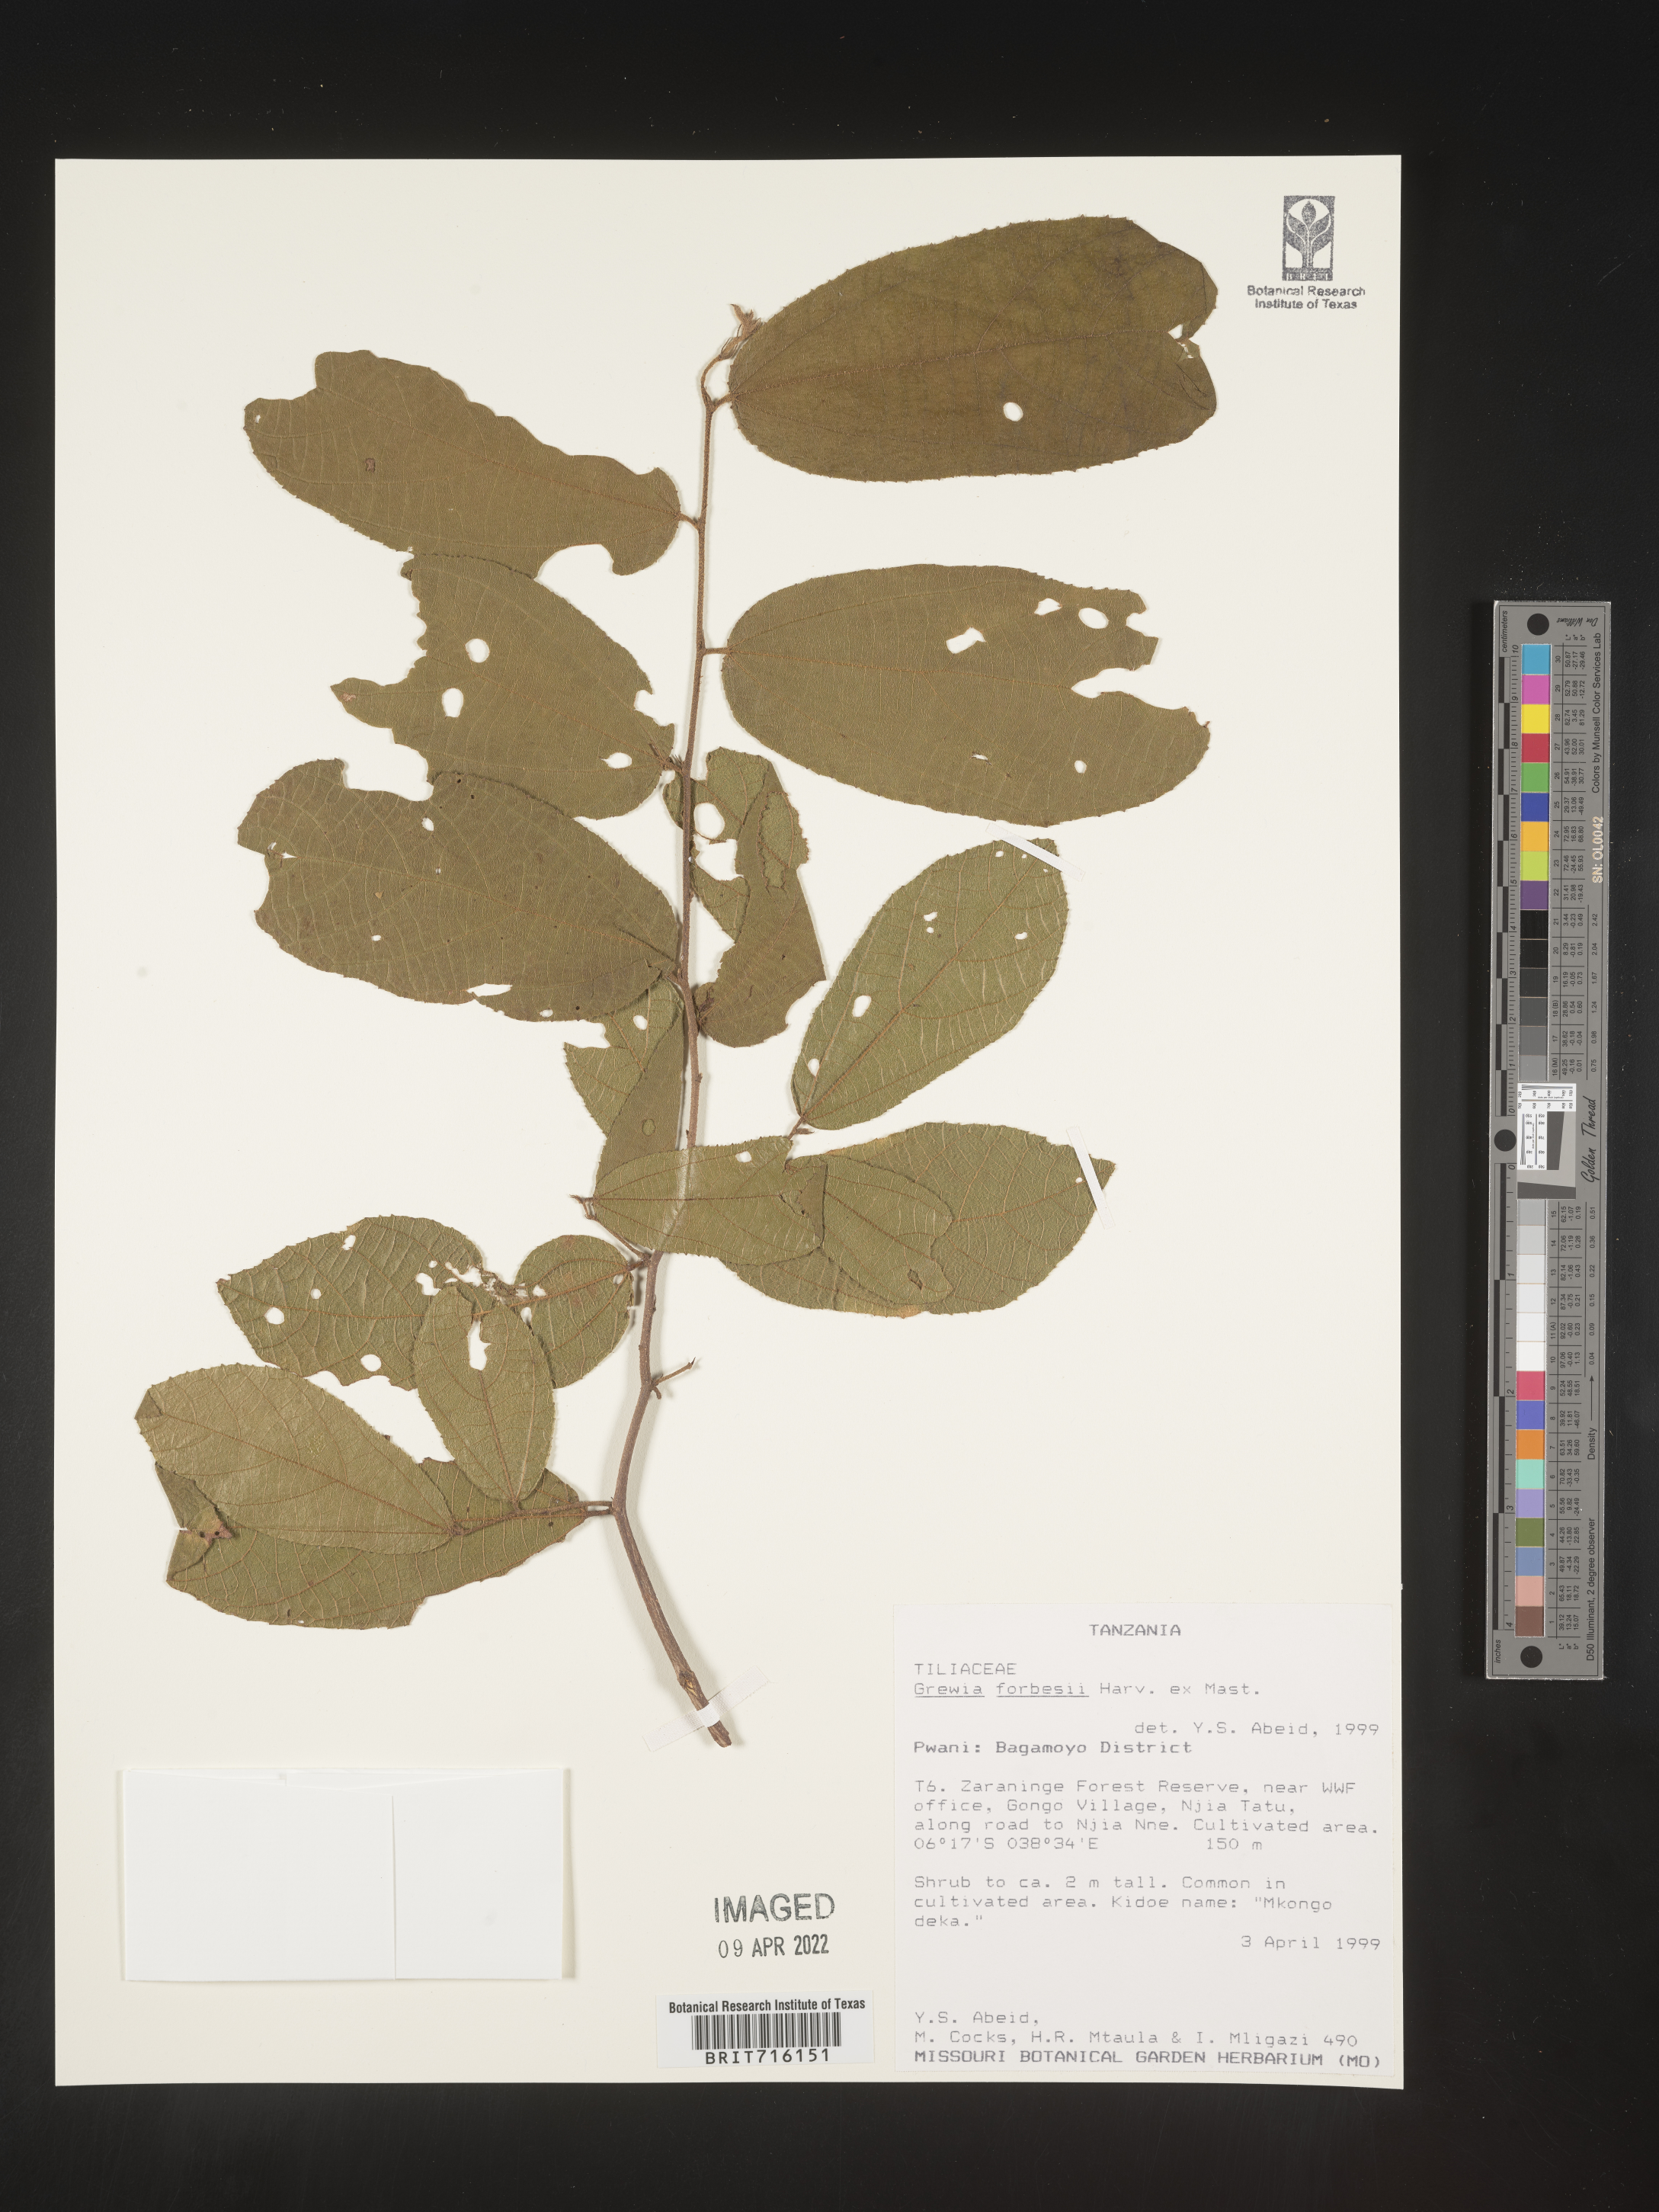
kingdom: Plantae
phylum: Tracheophyta
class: Magnoliopsida
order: Malvales
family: Malvaceae
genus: Grewia
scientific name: Grewia
